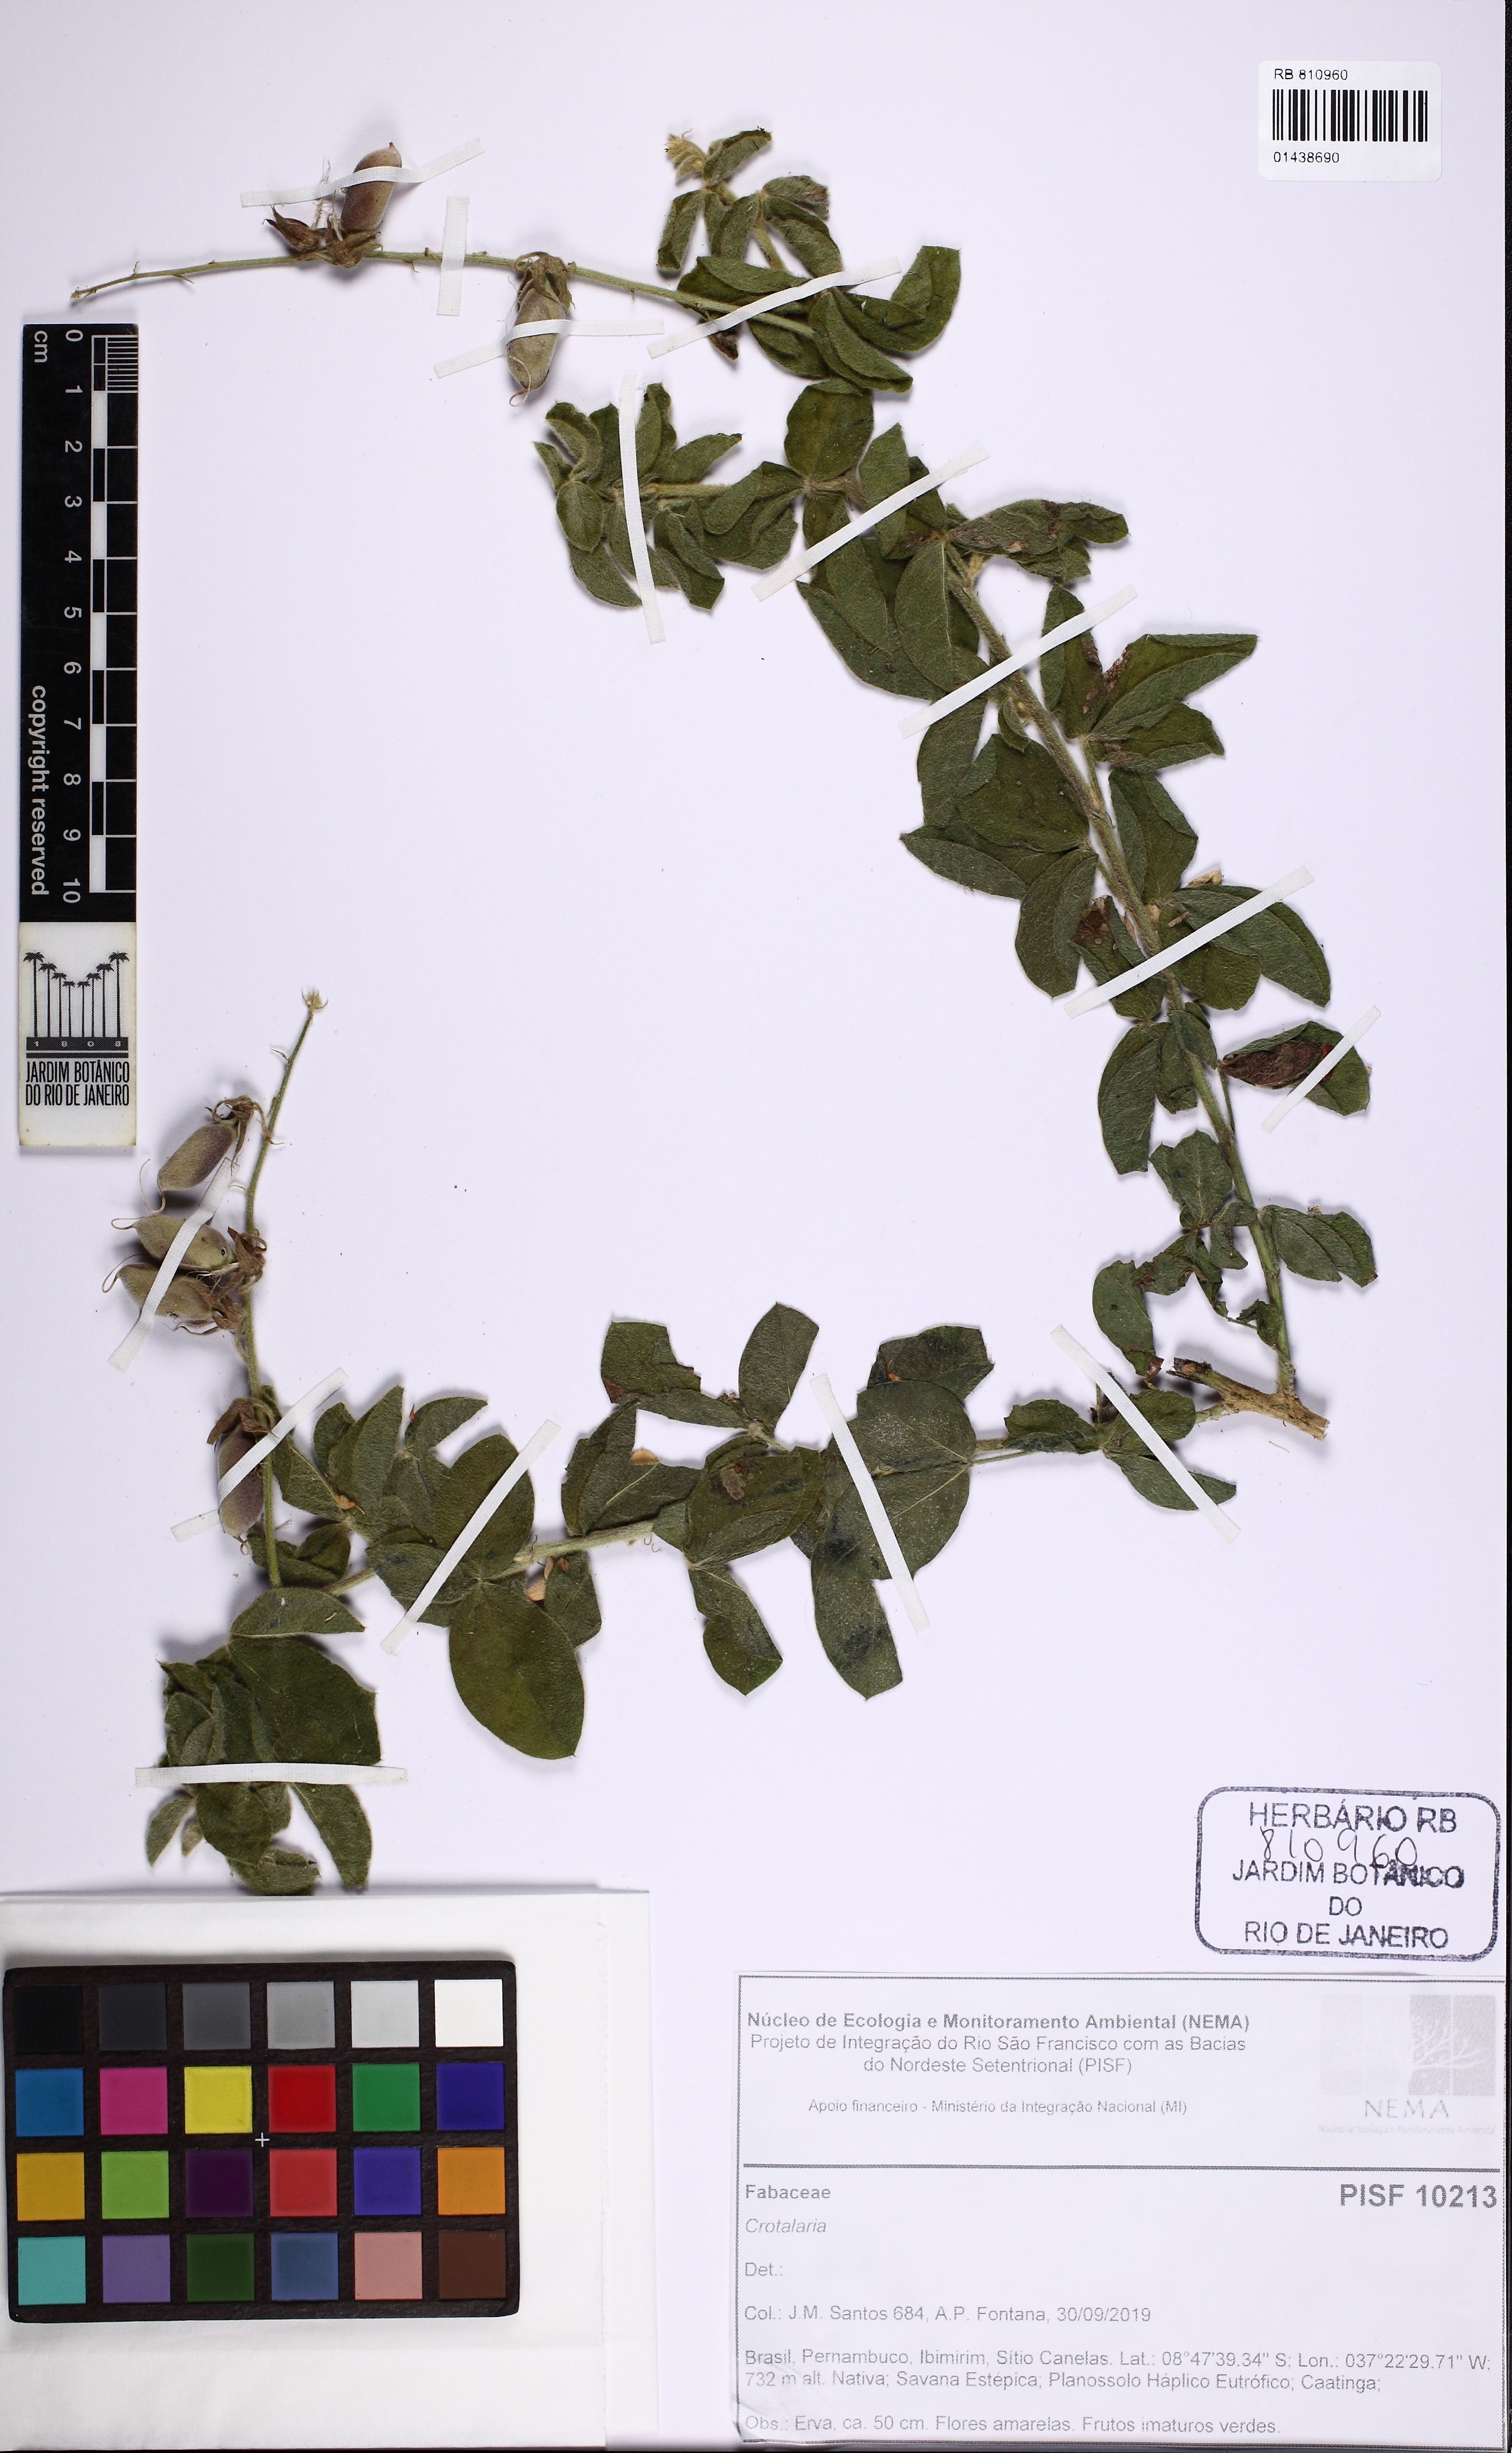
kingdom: Plantae
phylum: Tracheophyta
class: Magnoliopsida
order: Fabales
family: Fabaceae
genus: Crotalaria
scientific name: Crotalaria
